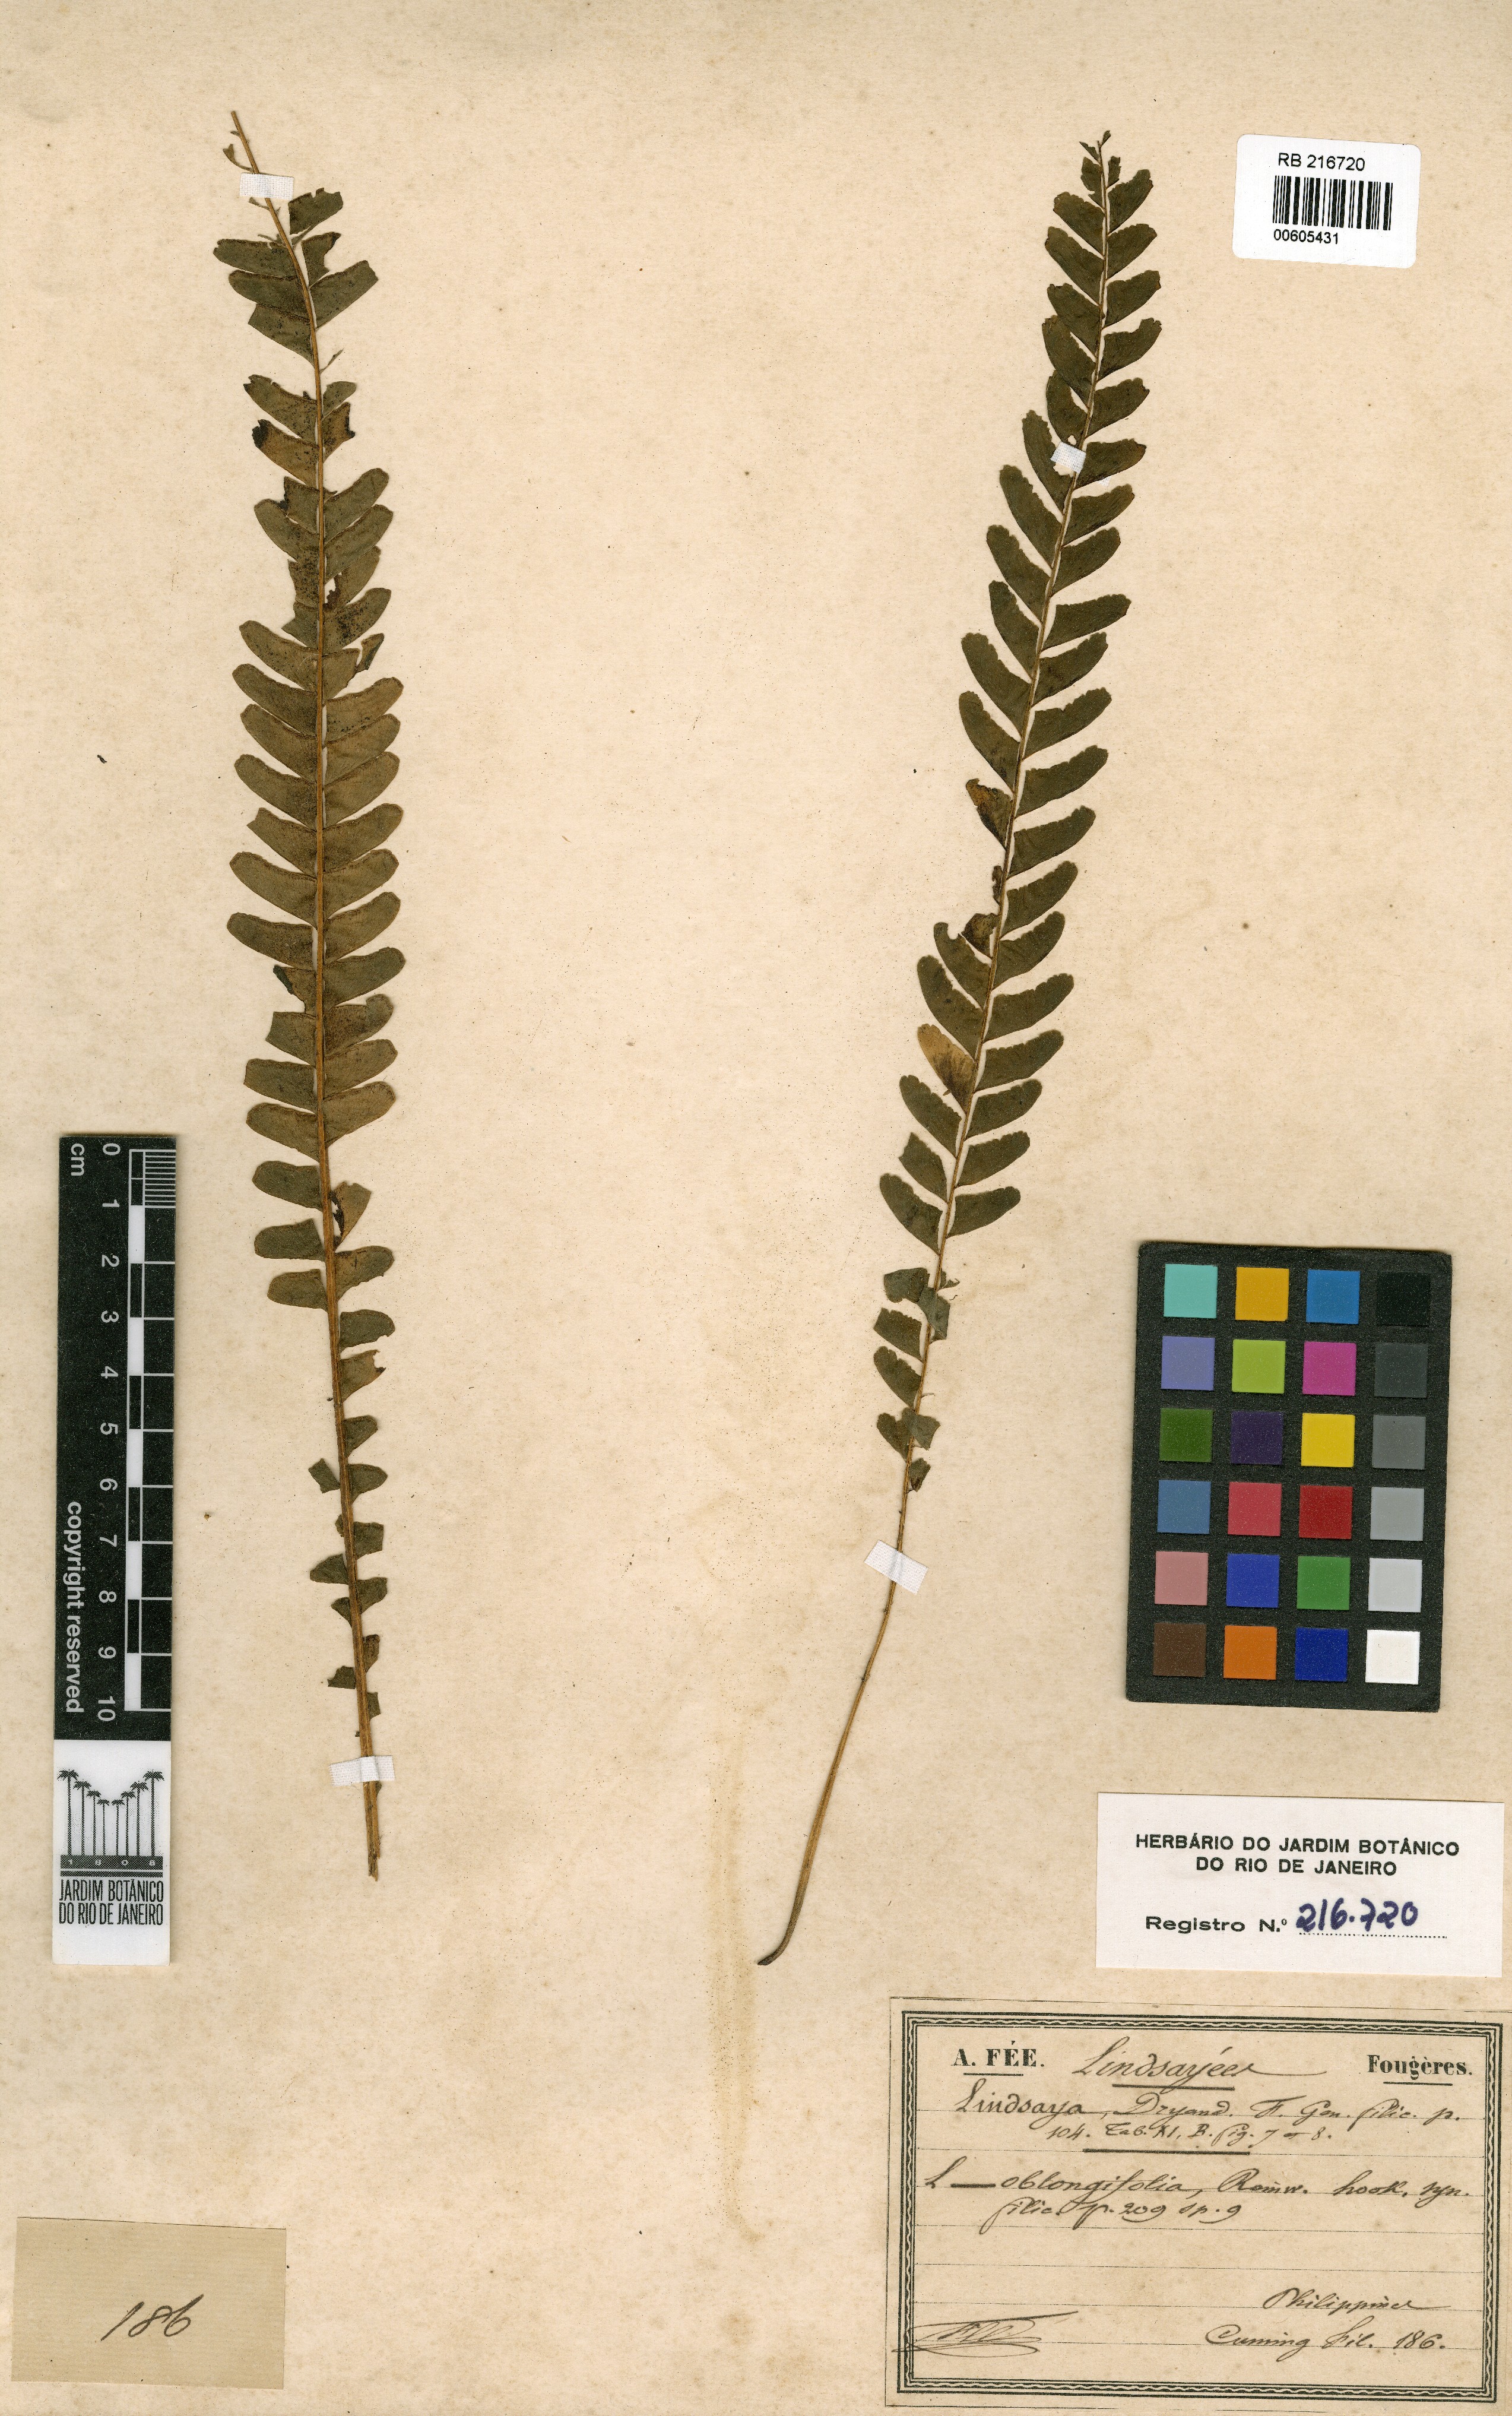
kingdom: Plantae
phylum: Tracheophyta
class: Polypodiopsida
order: Polypodiales
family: Lindsaeaceae
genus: Lindsaea
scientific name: Lindsaea repens
